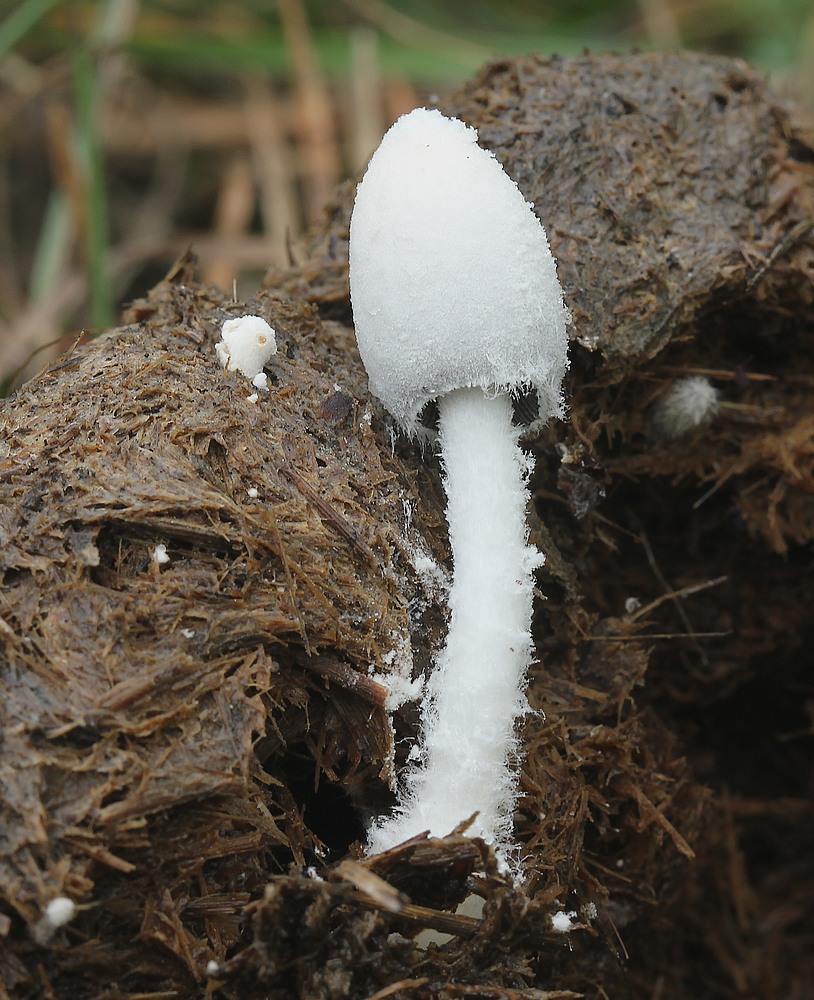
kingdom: Fungi
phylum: Basidiomycota
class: Agaricomycetes
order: Agaricales
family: Psathyrellaceae
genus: Coprinopsis
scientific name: Coprinopsis nivea
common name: snehvid blækhat
